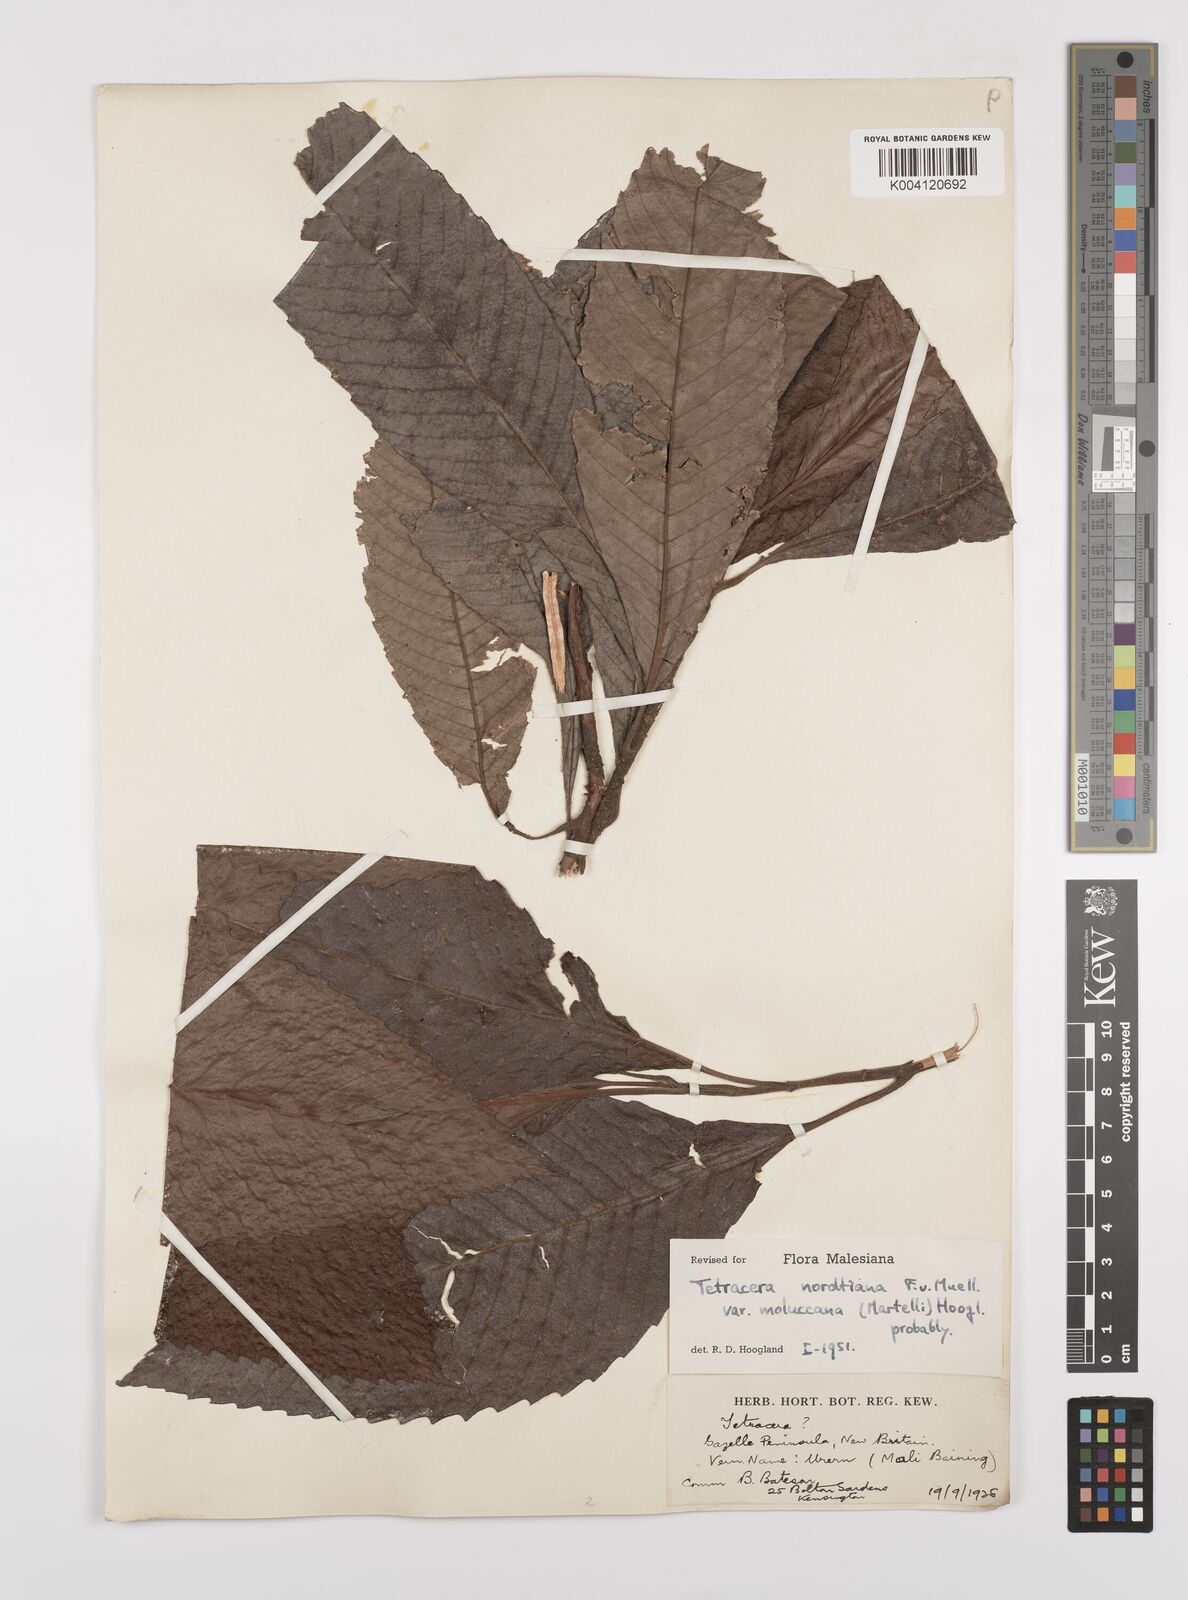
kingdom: Plantae
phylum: Tracheophyta
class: Magnoliopsida
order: Dilleniales
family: Dilleniaceae
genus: Tetracera
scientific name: Tetracera nordtiana
